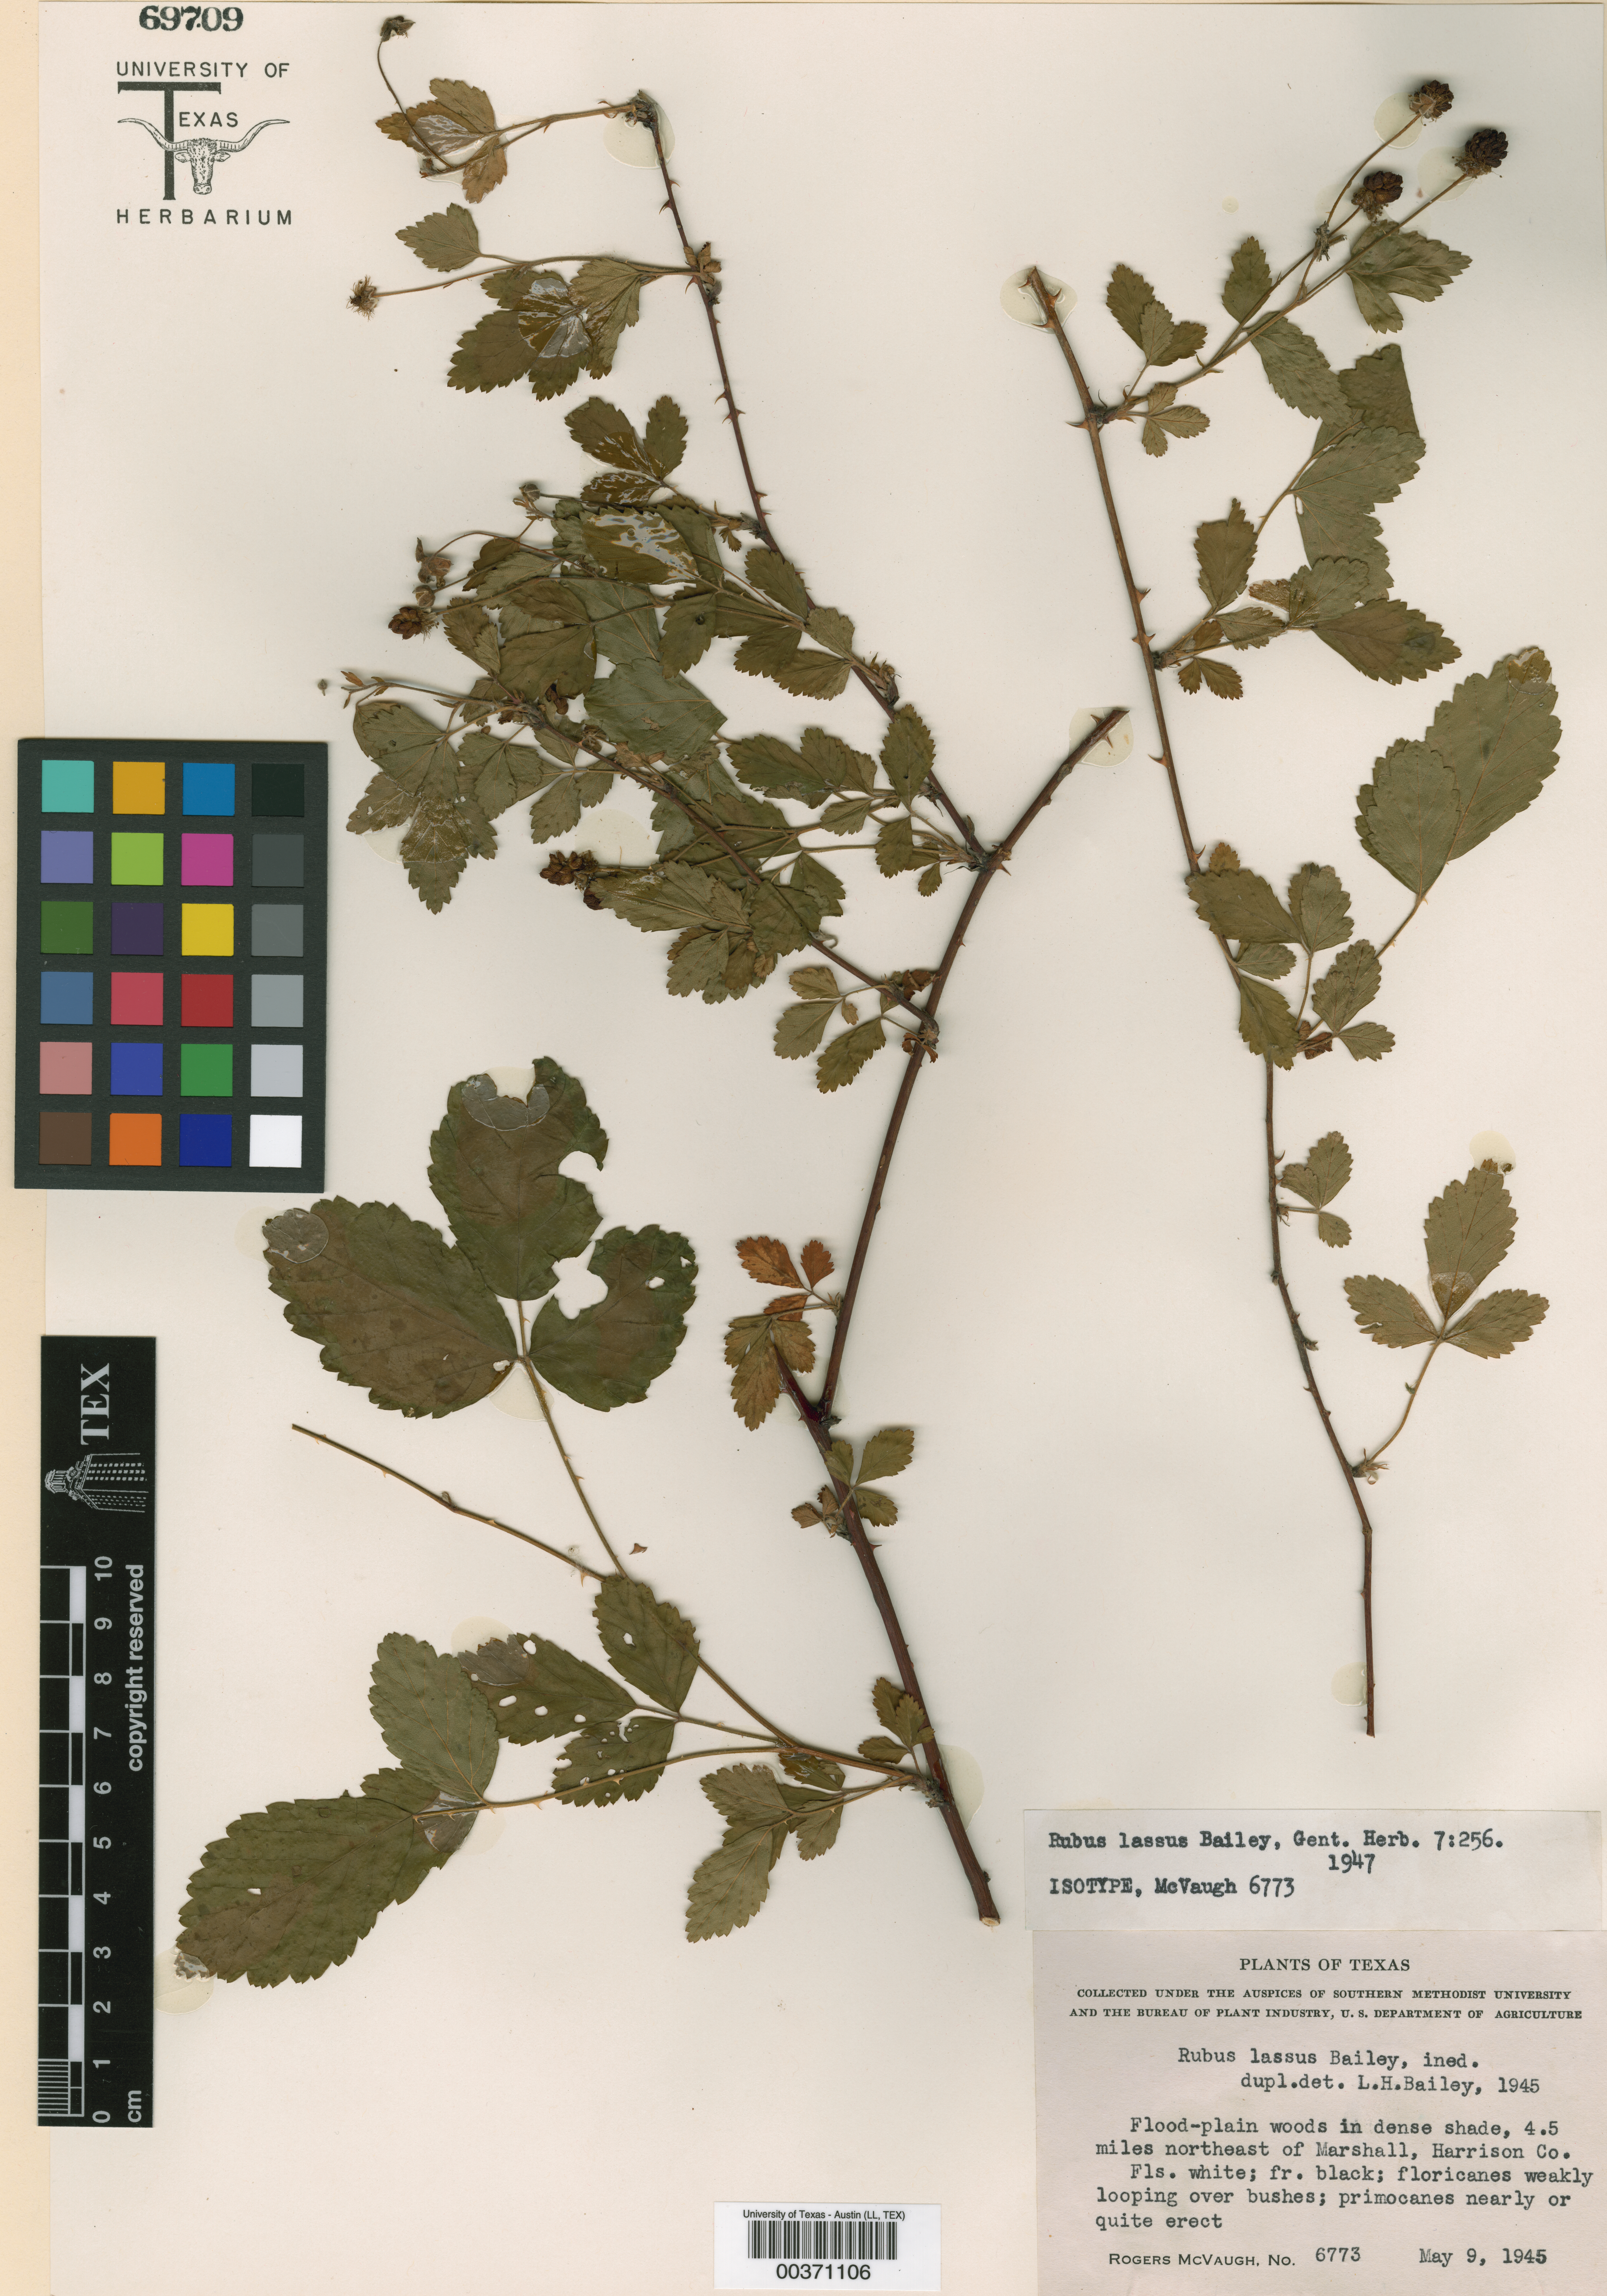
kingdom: Plantae
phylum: Tracheophyta
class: Magnoliopsida
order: Rosales
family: Rosaceae
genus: Rubus
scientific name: Rubus apogaeus
